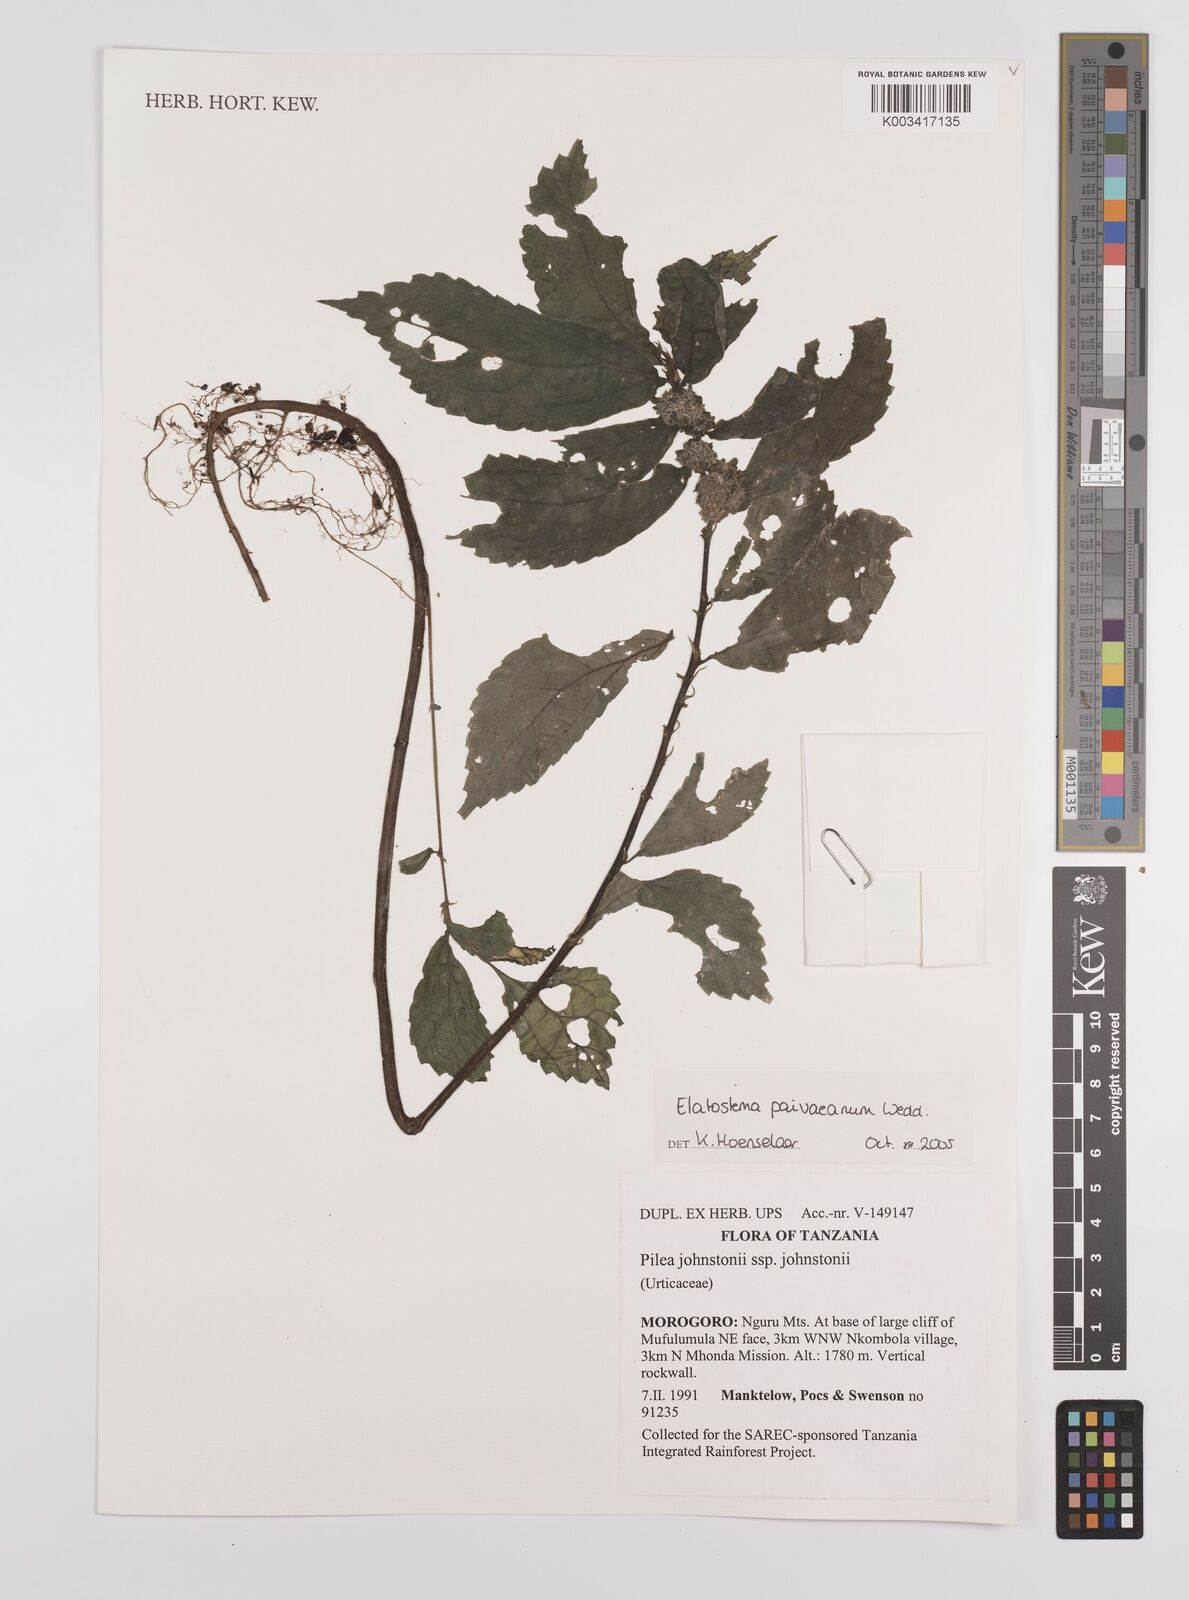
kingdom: Plantae
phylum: Tracheophyta
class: Magnoliopsida
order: Rosales
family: Urticaceae
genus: Elatostema
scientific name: Elatostema paivaeanum
